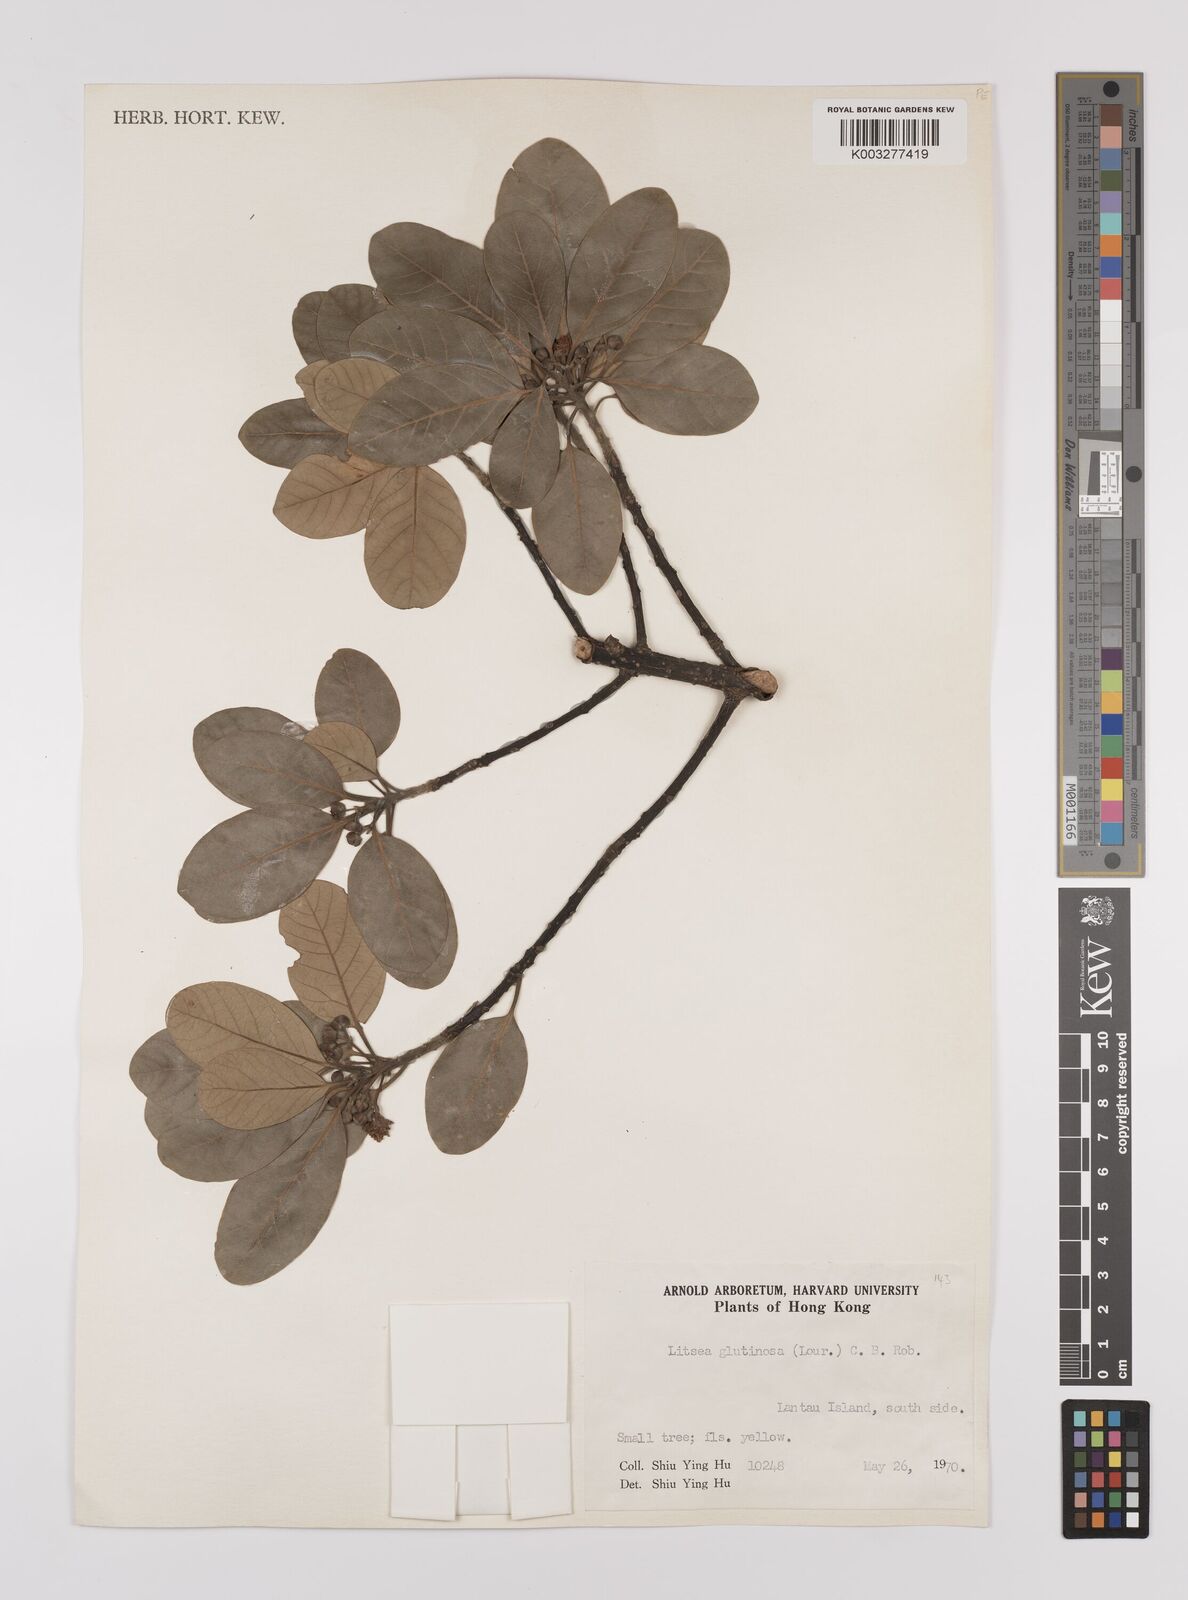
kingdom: Plantae
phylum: Tracheophyta
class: Magnoliopsida
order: Laurales
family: Lauraceae
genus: Litsea
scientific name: Litsea glutinosa
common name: Indian-laurel
